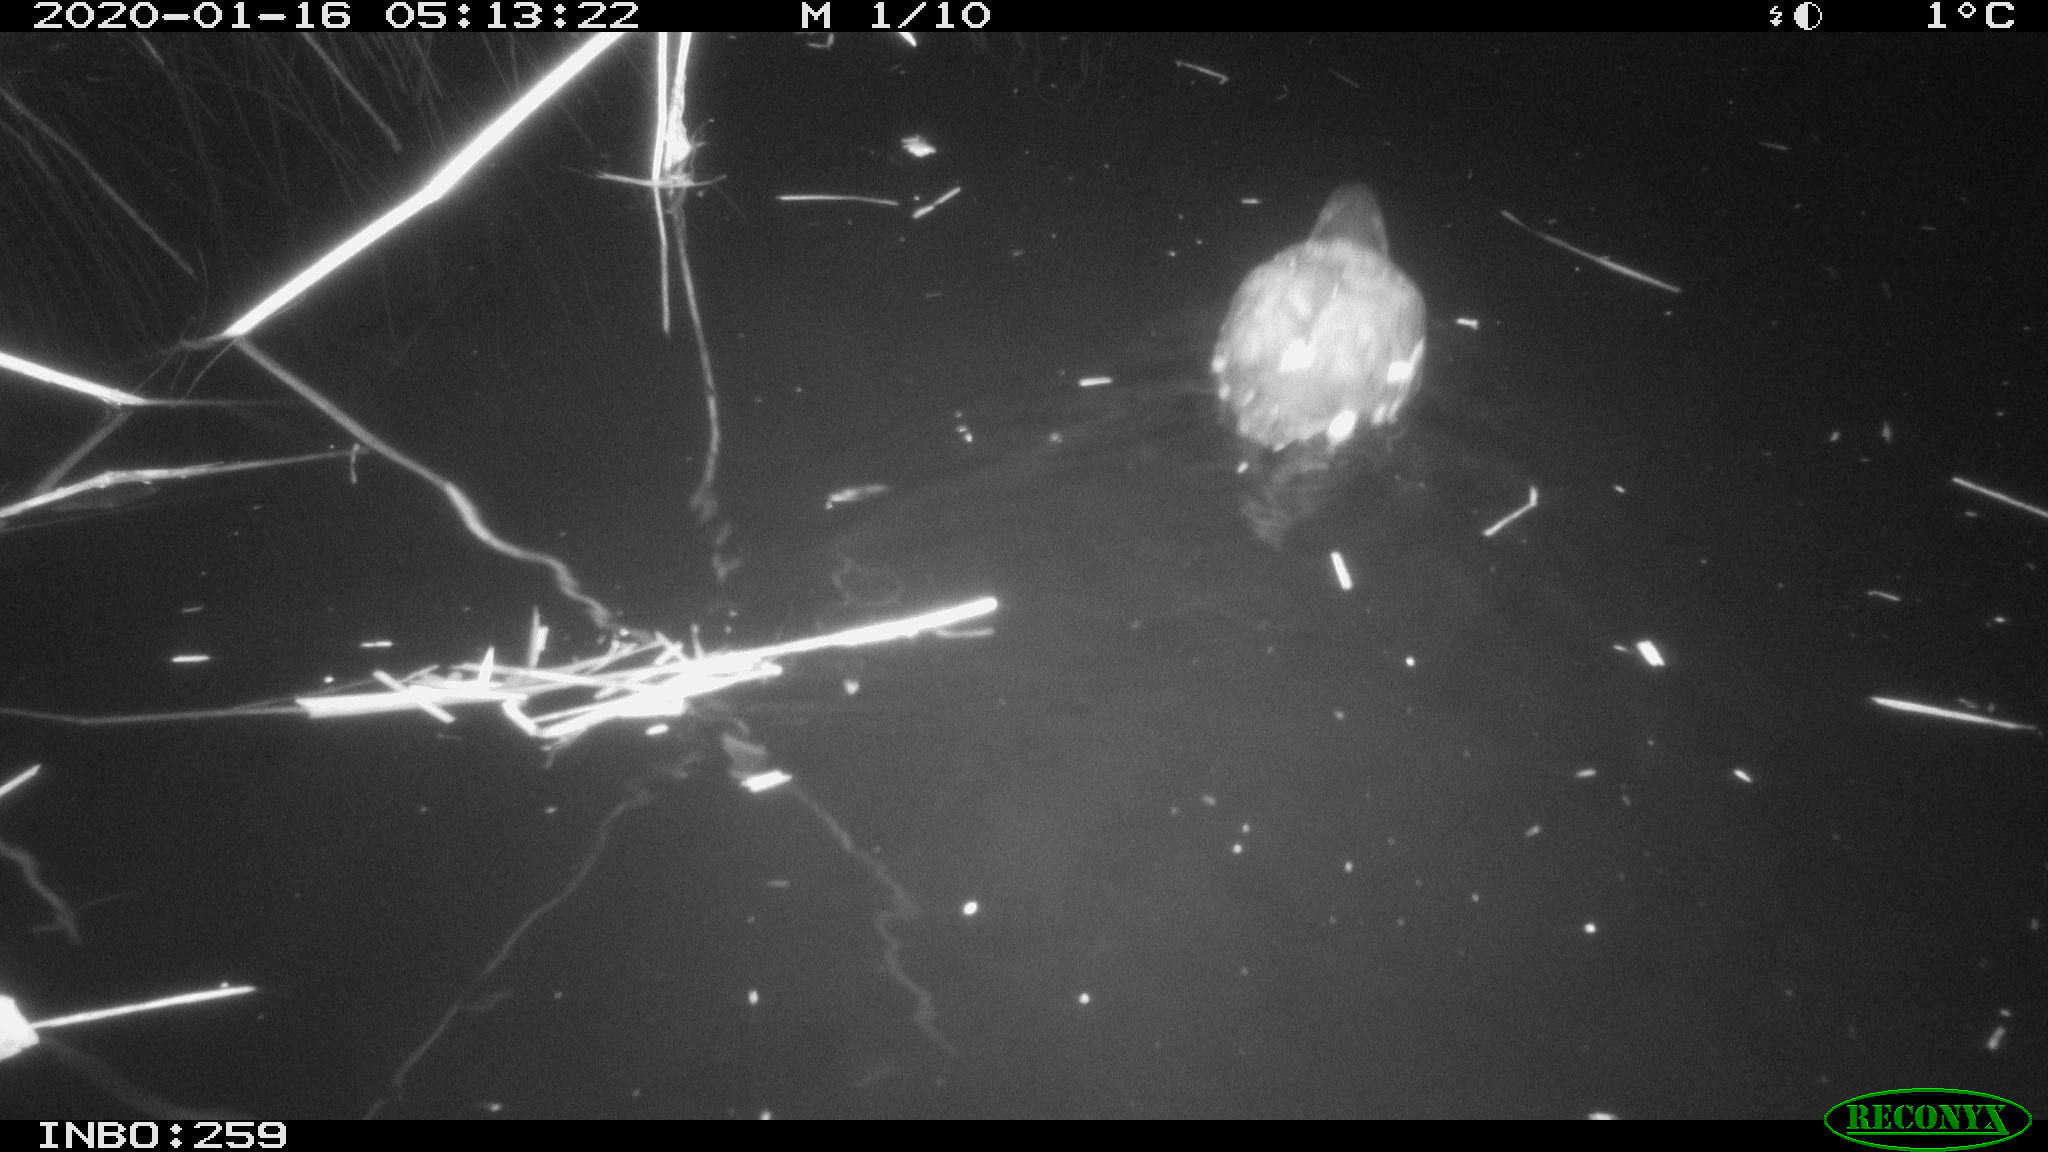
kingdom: Animalia
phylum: Chordata
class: Aves
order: Gruiformes
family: Rallidae
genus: Gallinula
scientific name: Gallinula chloropus
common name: Common moorhen
